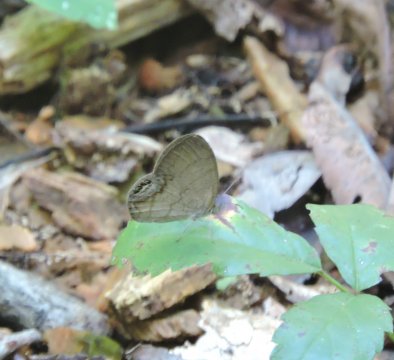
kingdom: Animalia
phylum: Arthropoda
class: Insecta
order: Lepidoptera
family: Nymphalidae
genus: Euptychia
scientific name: Euptychia cornelius
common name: Gemmed Satyr
